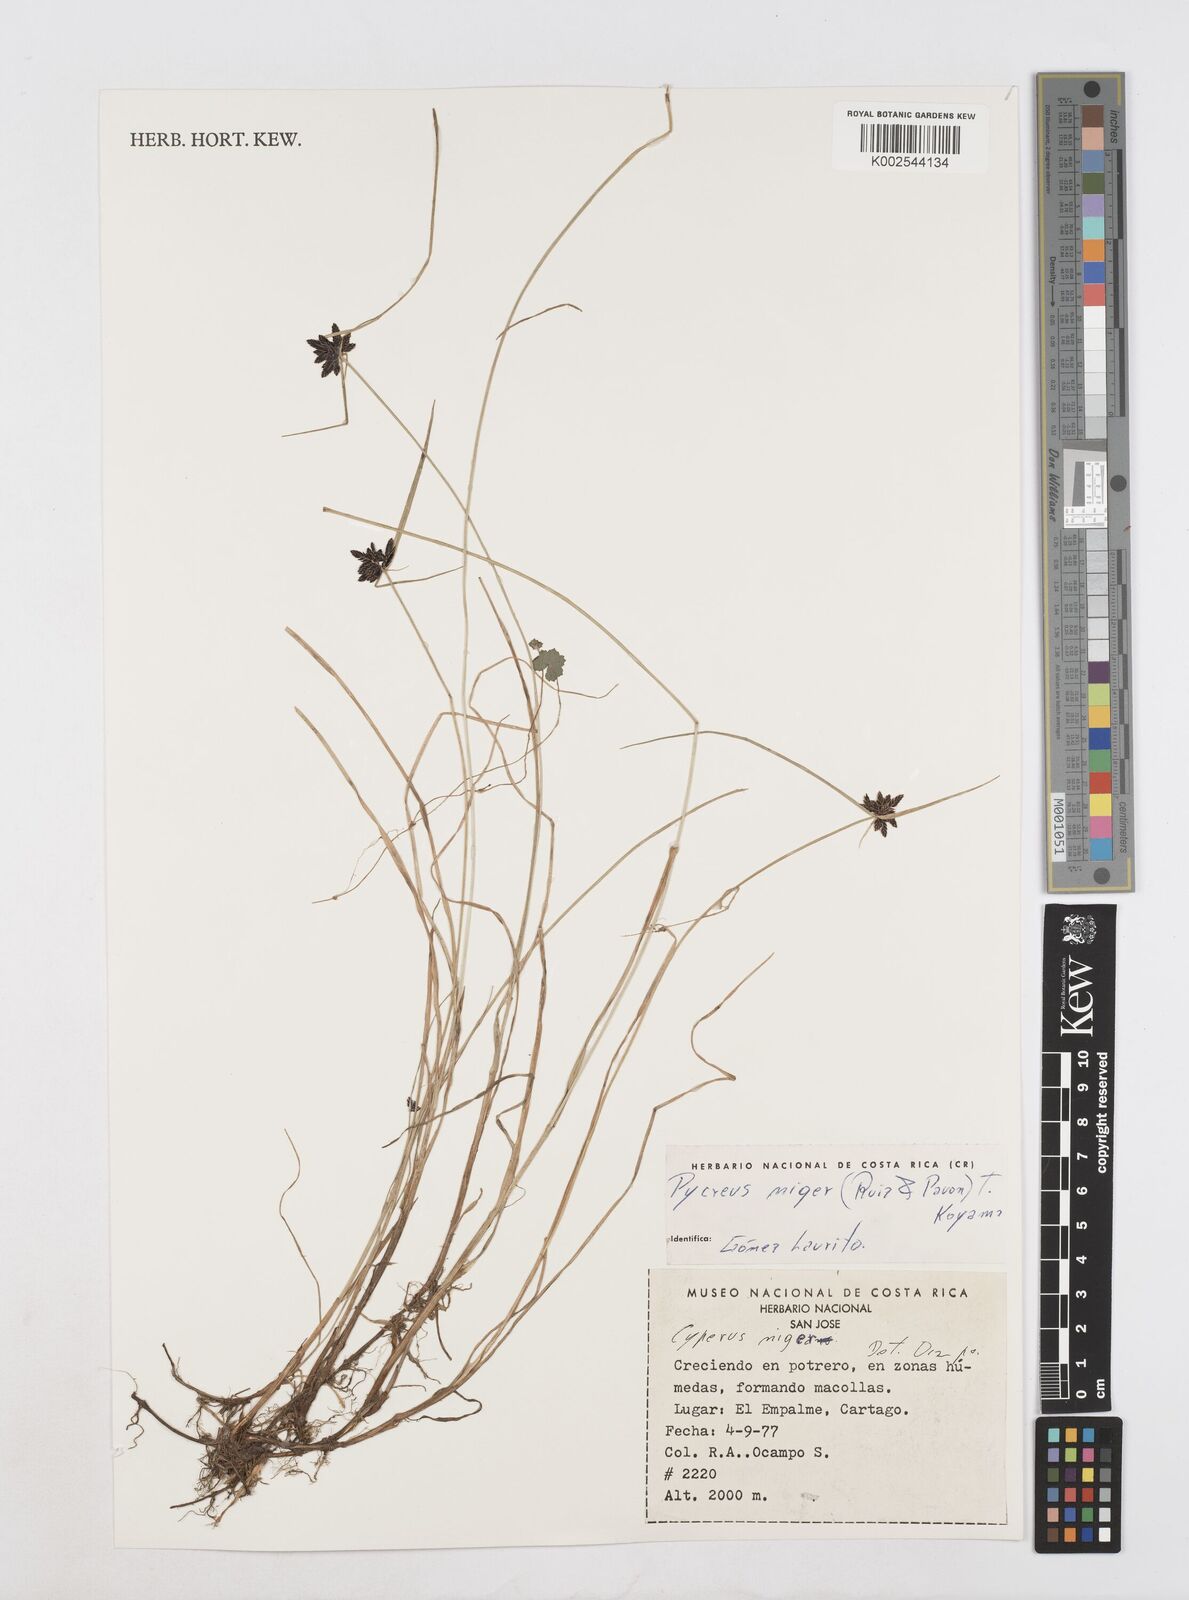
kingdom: Plantae
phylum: Tracheophyta
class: Liliopsida
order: Poales
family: Cyperaceae
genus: Cyperus
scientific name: Cyperus melanostachyus
